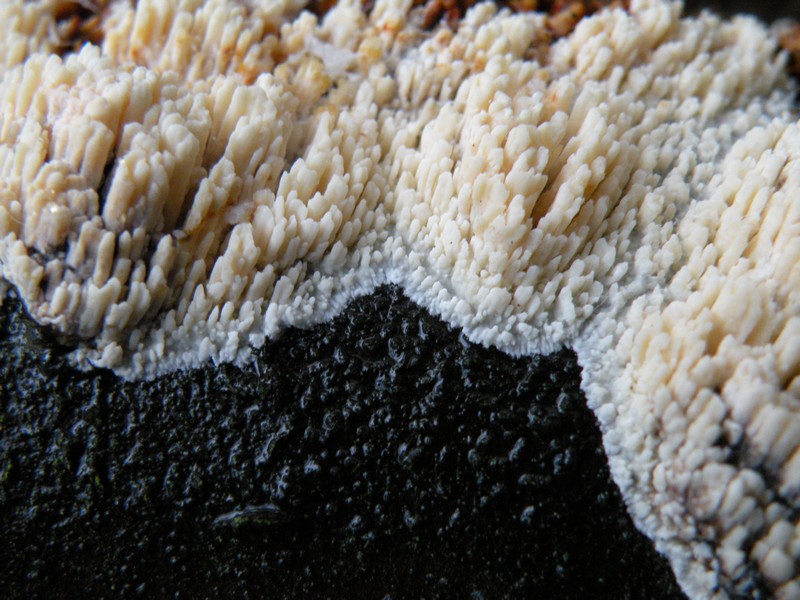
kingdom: Fungi
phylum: Basidiomycota
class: Agaricomycetes
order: Hymenochaetales
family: Schizoporaceae
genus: Xylodon
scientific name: Xylodon radula
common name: grovtandet kalkskind
